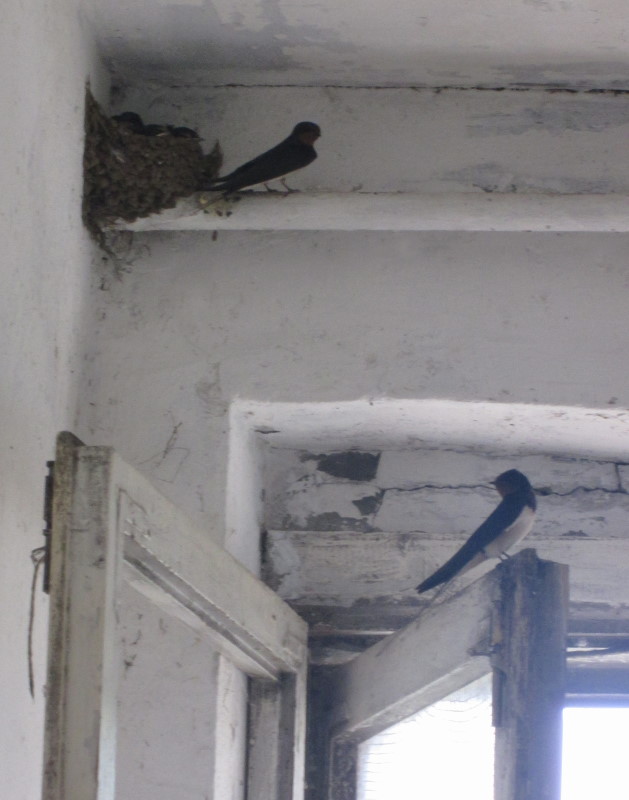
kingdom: Animalia
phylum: Chordata
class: Aves
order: Passeriformes
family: Hirundinidae
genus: Hirundo
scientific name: Hirundo rustica
